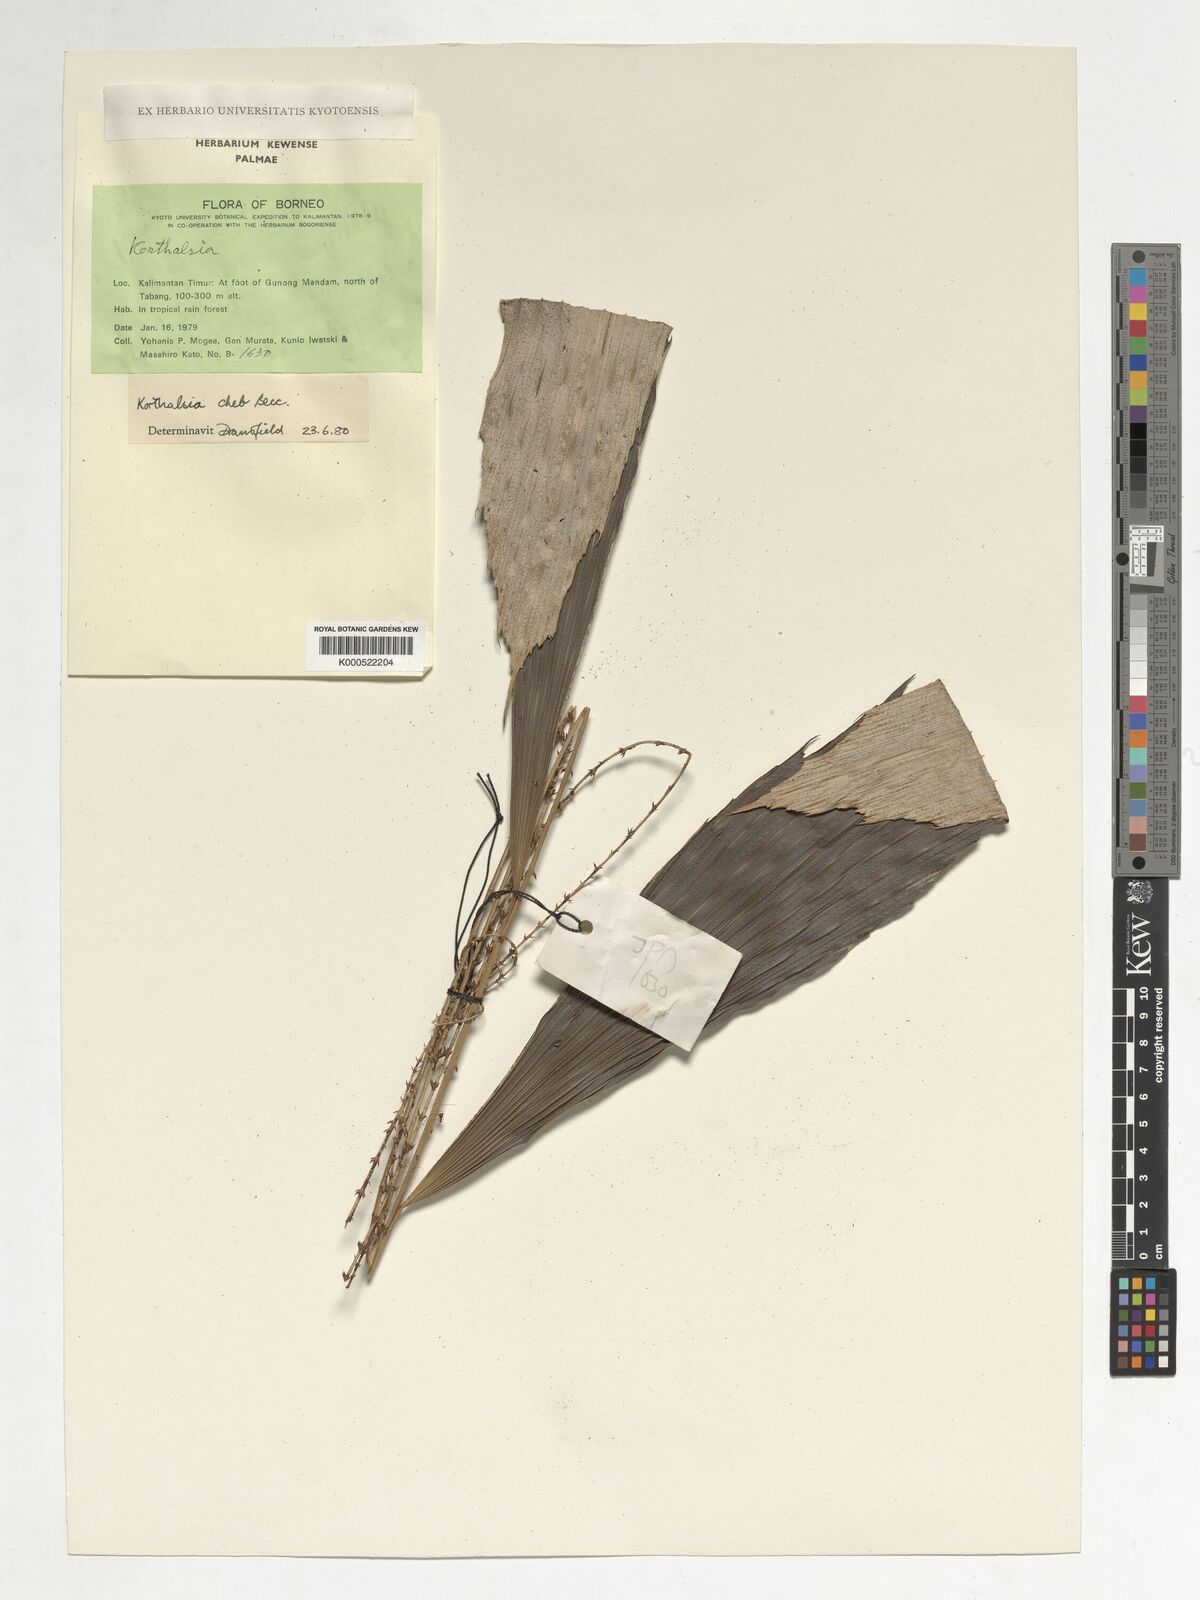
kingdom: Plantae
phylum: Tracheophyta
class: Liliopsida
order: Arecales
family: Arecaceae
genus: Korthalsia
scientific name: Korthalsia cheb
